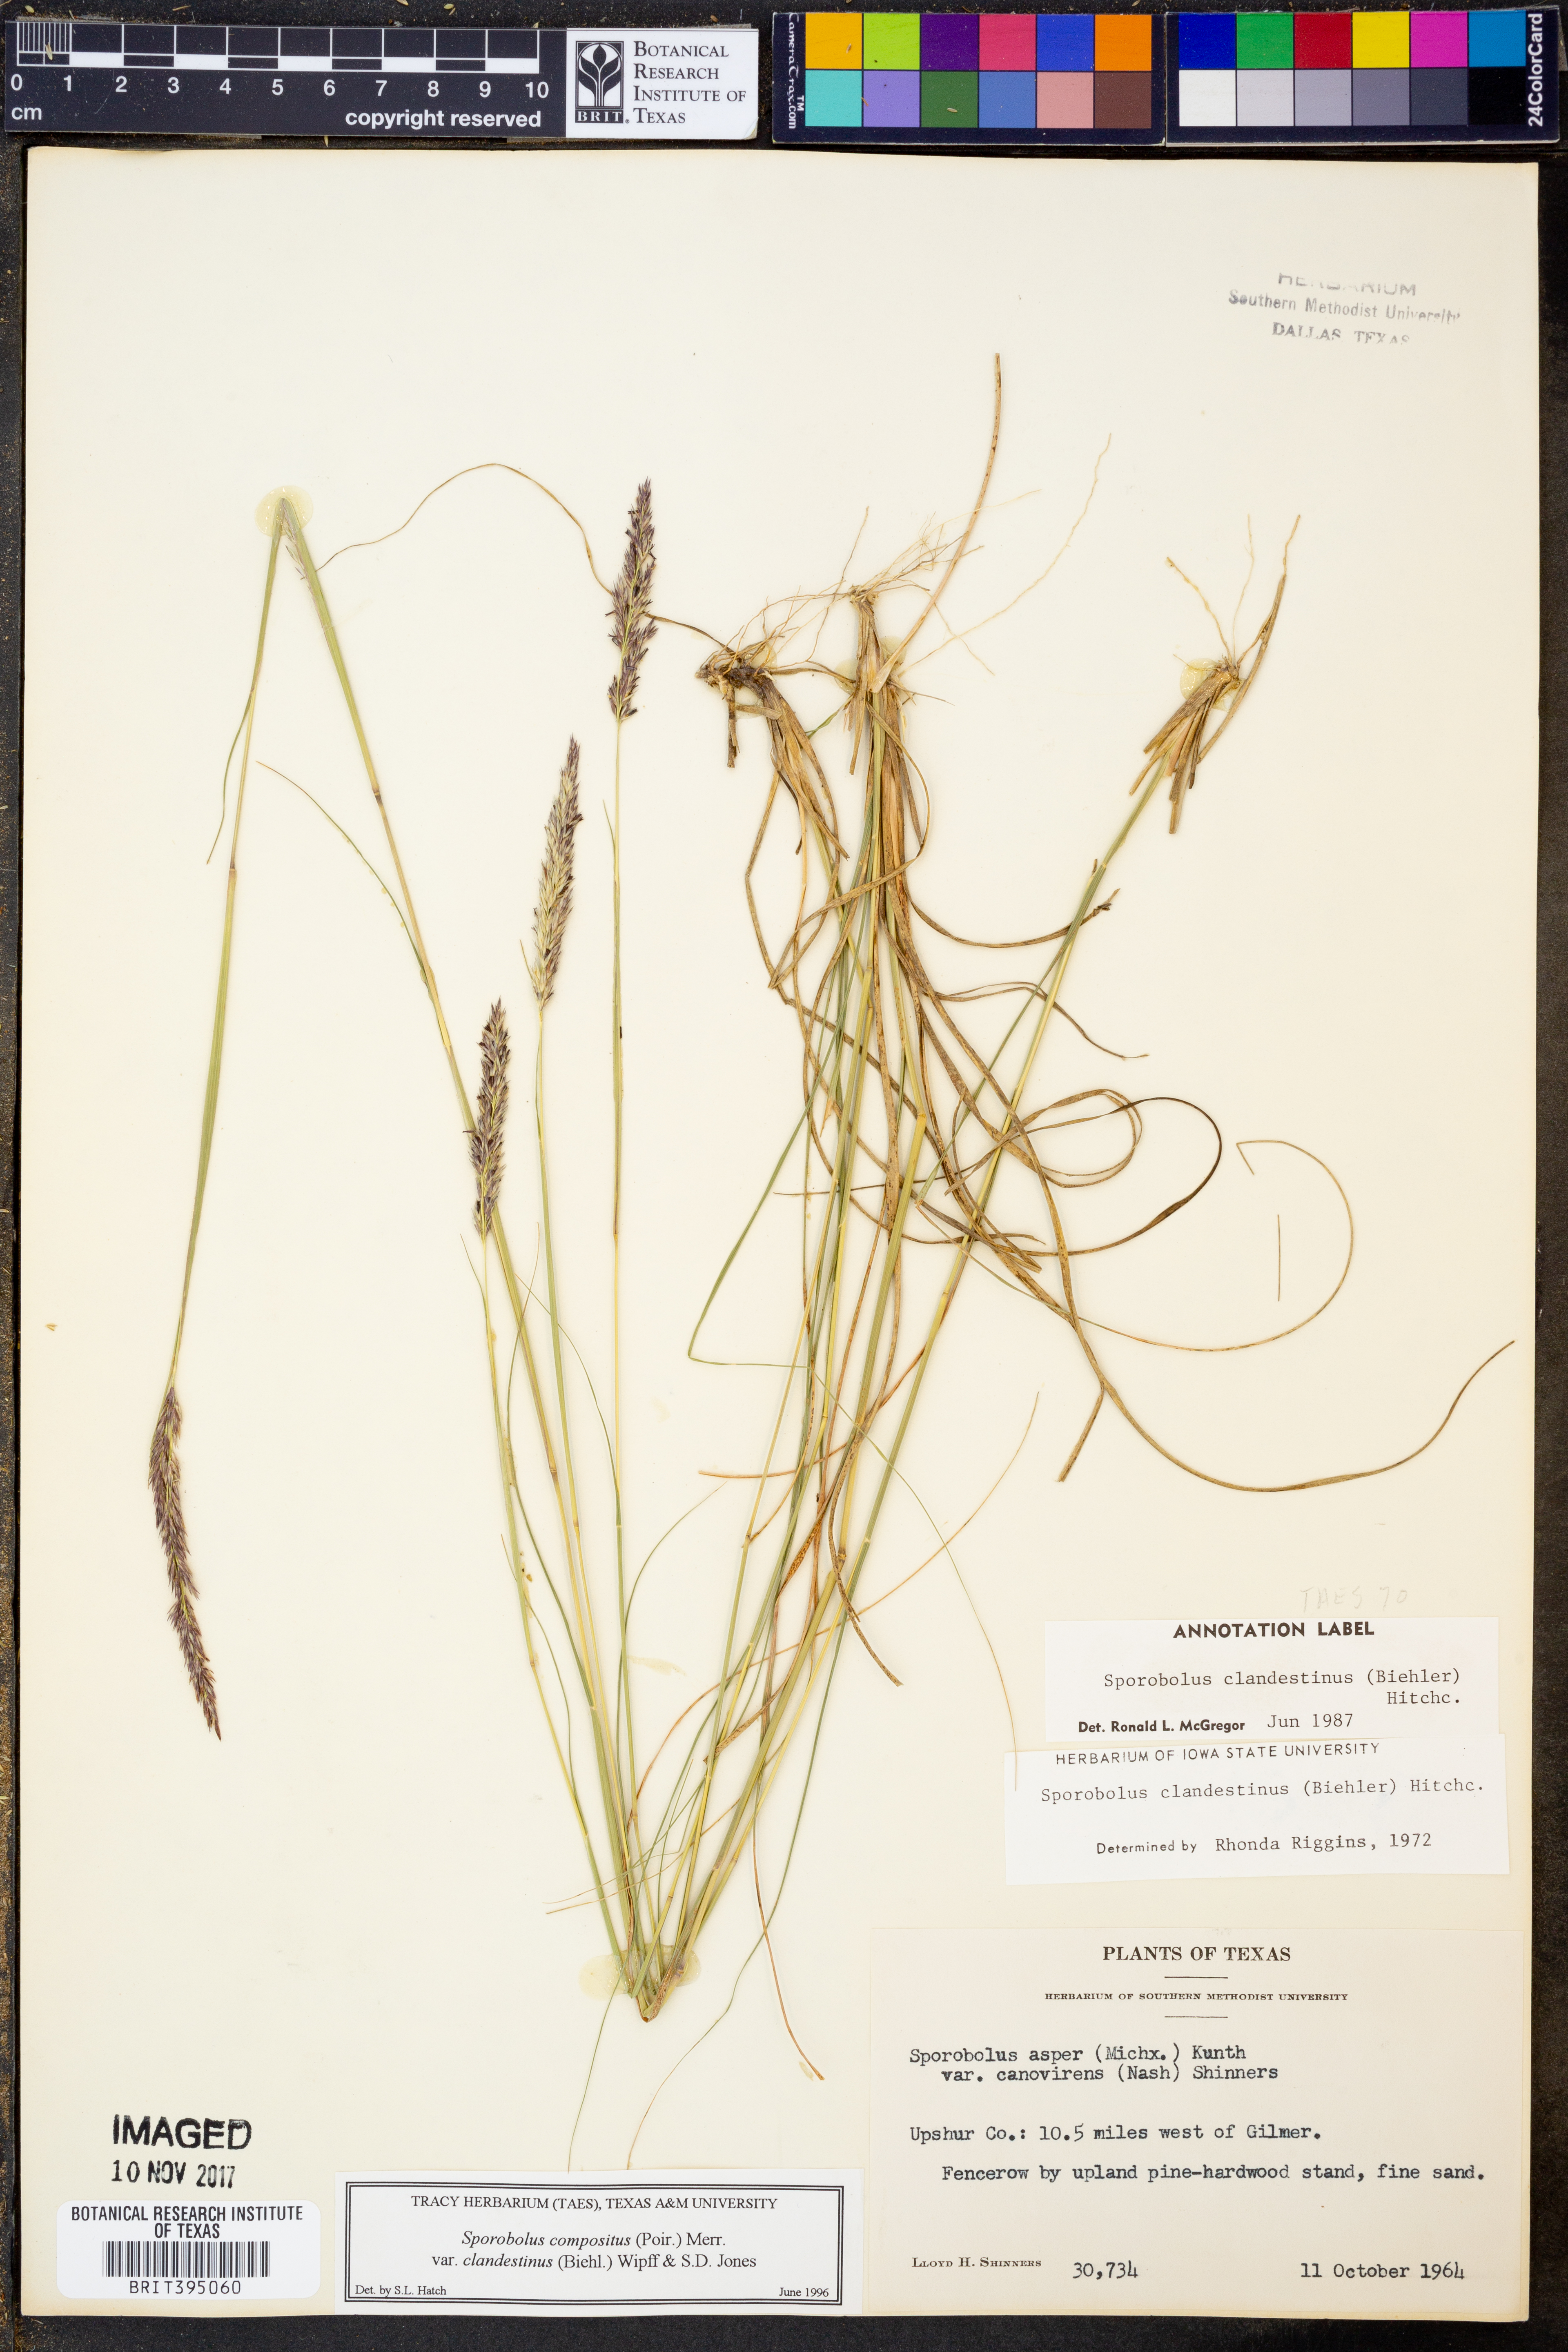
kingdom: Plantae
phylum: Tracheophyta
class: Liliopsida
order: Poales
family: Poaceae
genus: Sporobolus
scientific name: Sporobolus clandestinus
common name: Hidden dropseed
